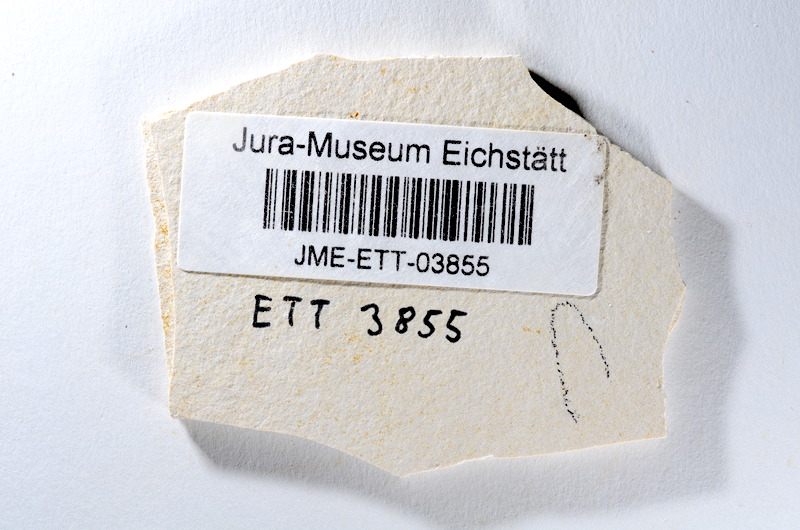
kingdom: Animalia
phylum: Chordata
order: Salmoniformes
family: Orthogonikleithridae
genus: Orthogonikleithrus
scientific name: Orthogonikleithrus hoelli
